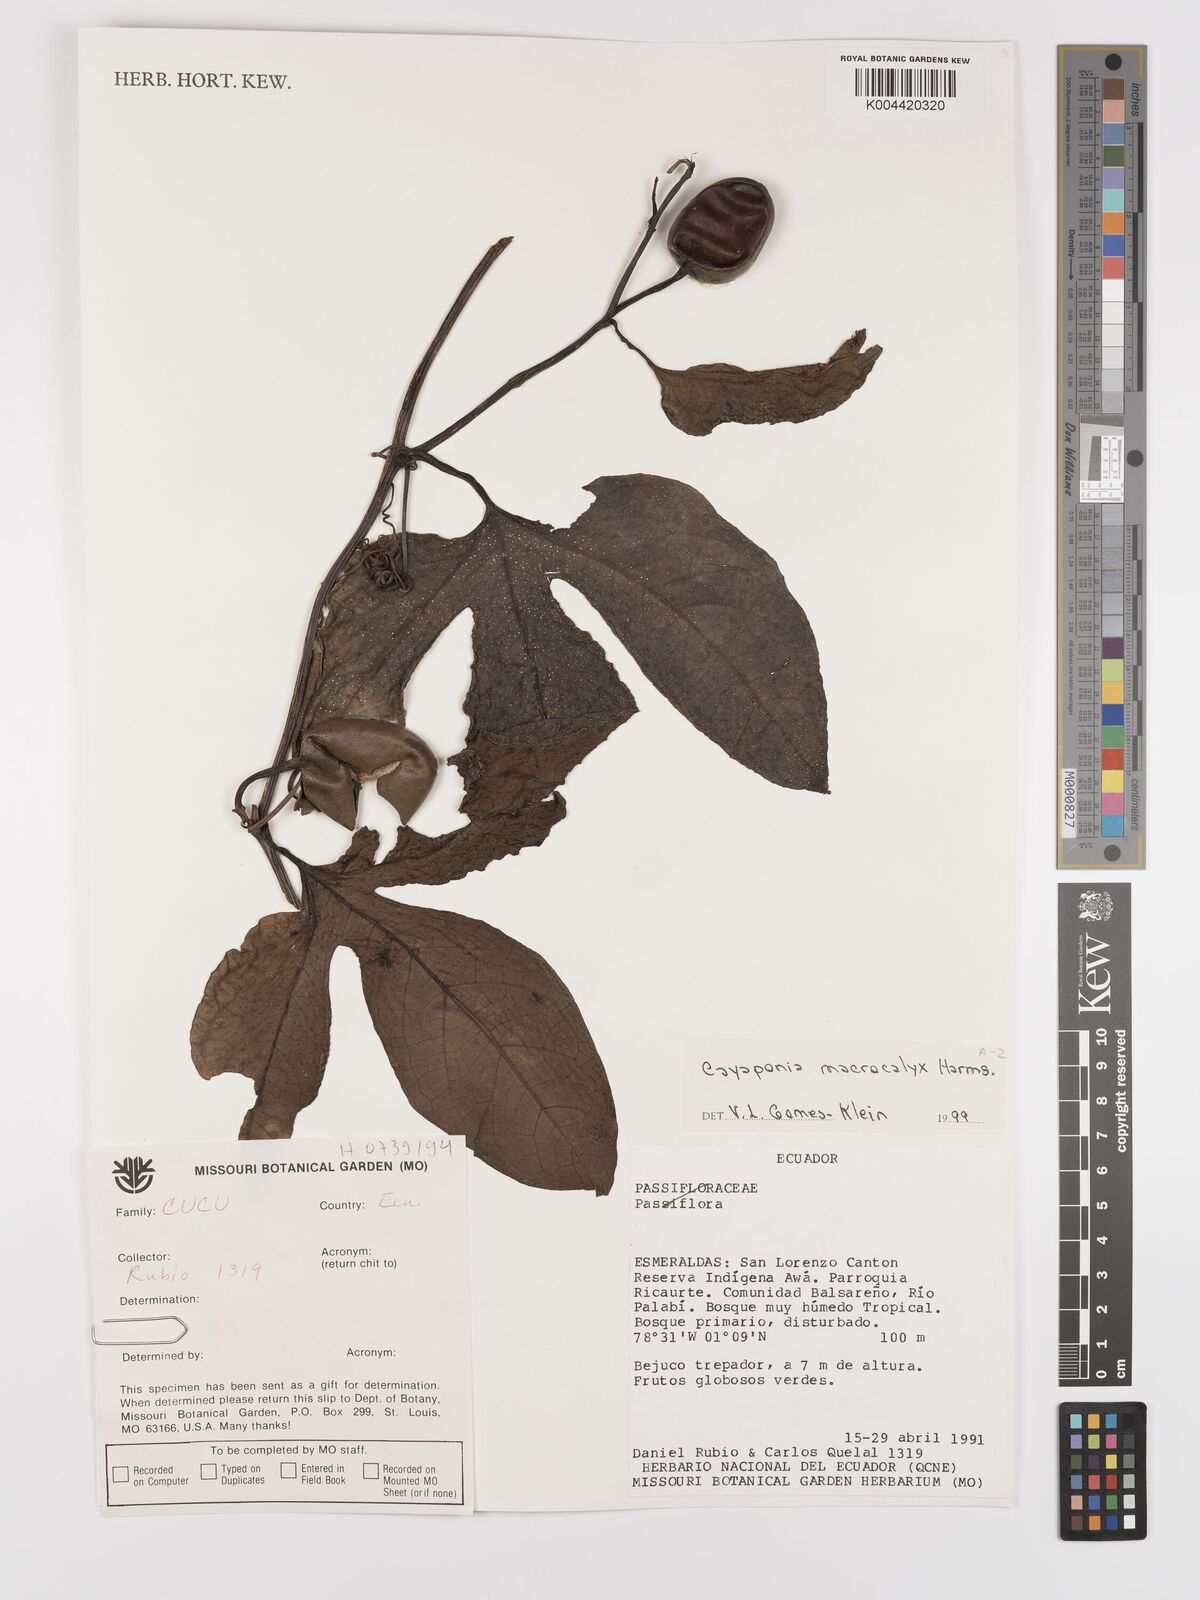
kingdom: Plantae
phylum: Tracheophyta
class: Magnoliopsida
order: Cucurbitales
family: Cucurbitaceae
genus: Cayaponia
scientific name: Cayaponia macrocalyx
